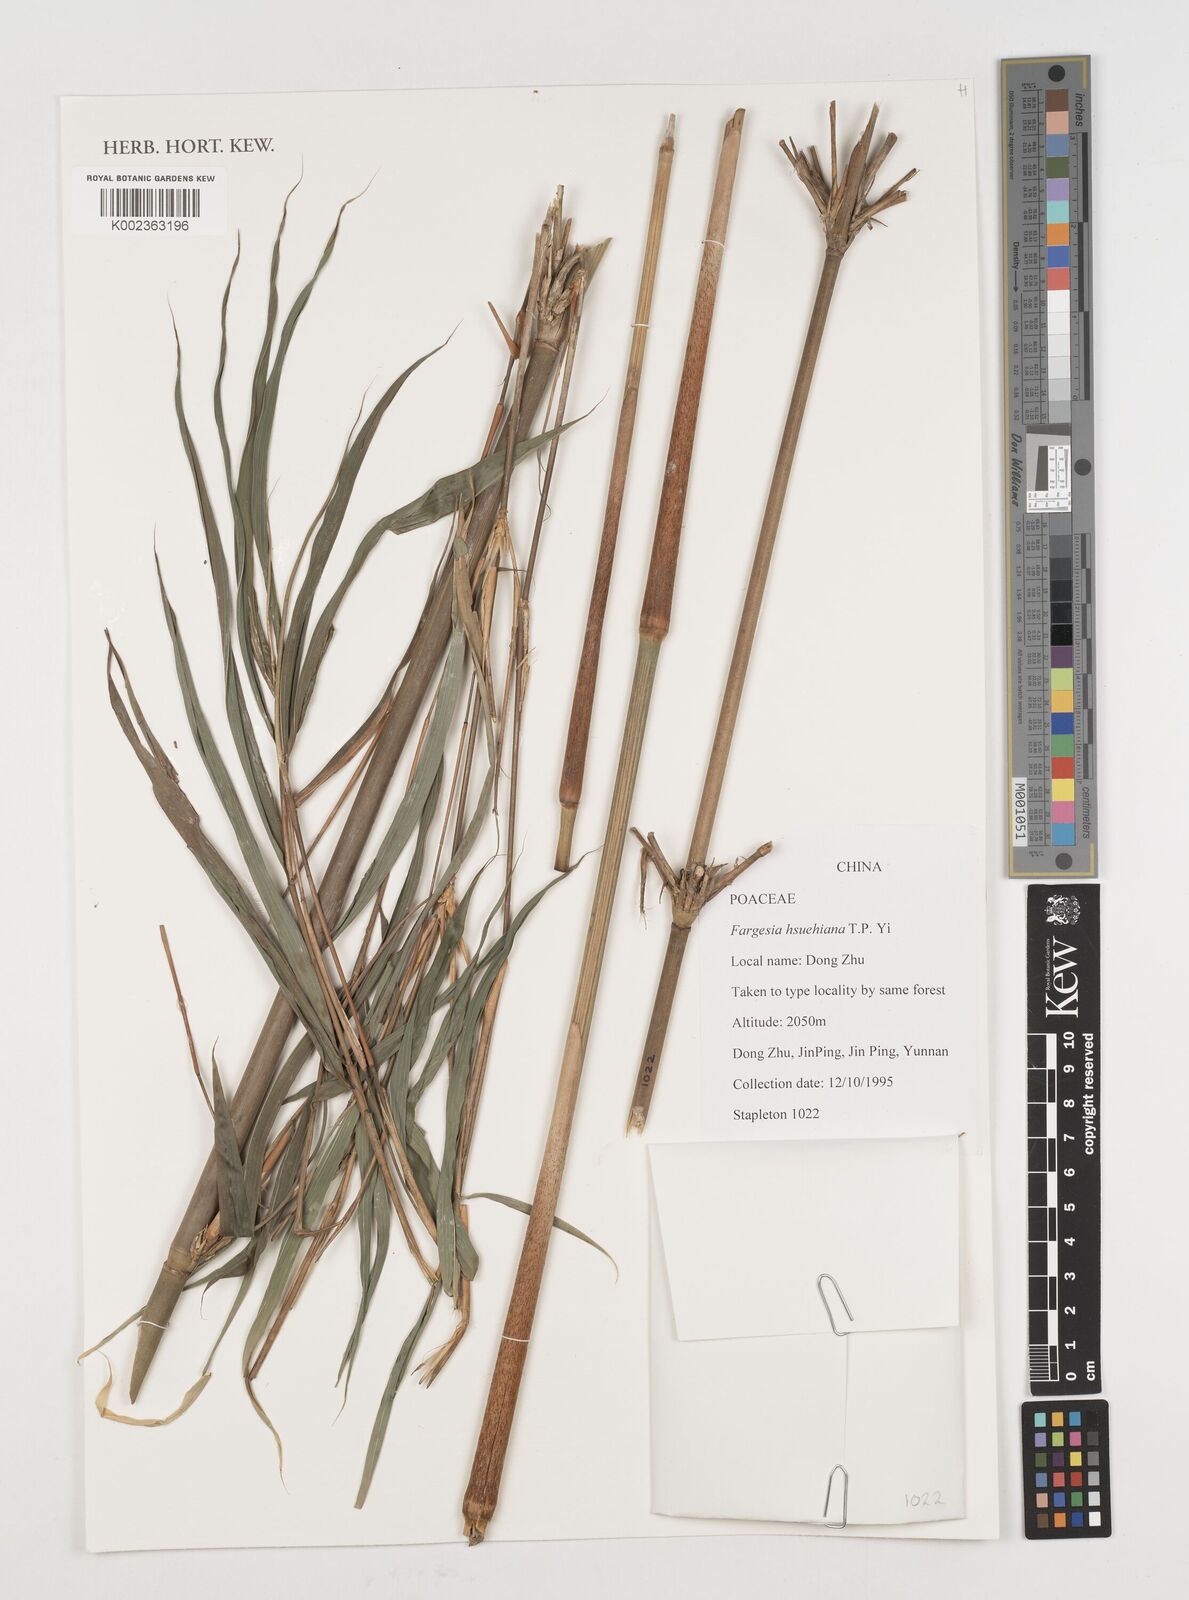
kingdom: Plantae
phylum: Tracheophyta
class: Liliopsida
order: Poales
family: Poaceae
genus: Borinda
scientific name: Borinda hsuehiana
